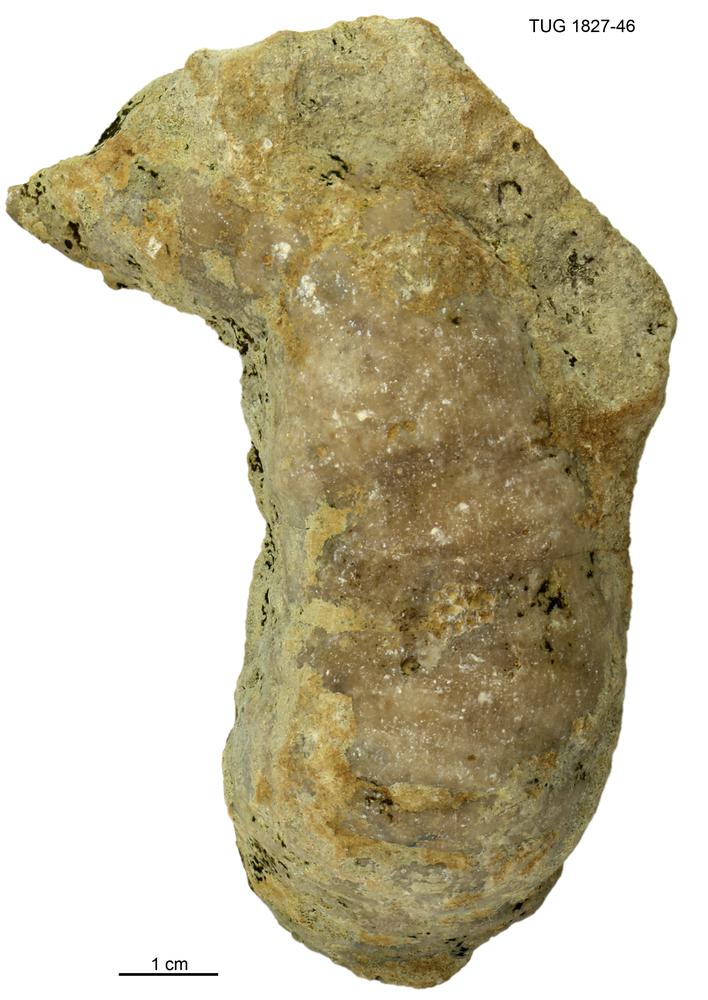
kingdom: Animalia
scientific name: Animalia
